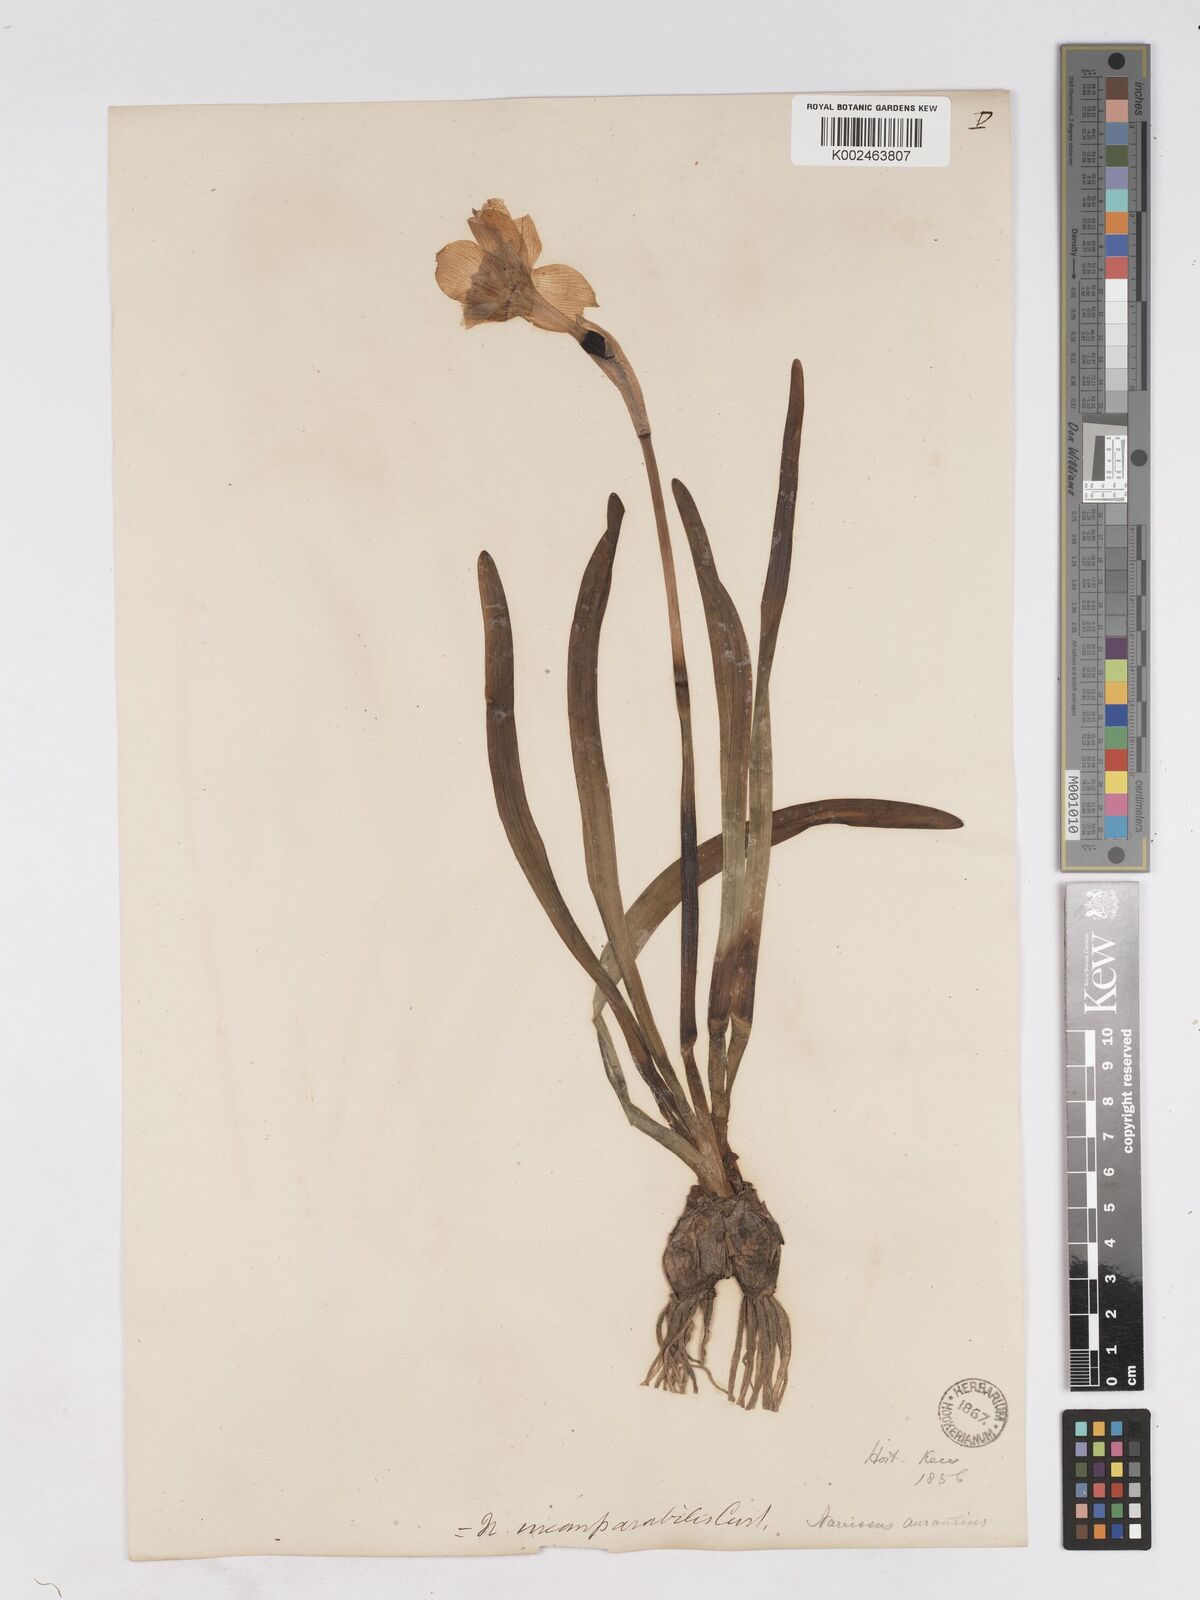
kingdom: Plantae
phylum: Tracheophyta
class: Liliopsida
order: Asparagales
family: Amaryllidaceae
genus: Narcissus
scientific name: Narcissus incomparabilis
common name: Nonesuch daffodil
